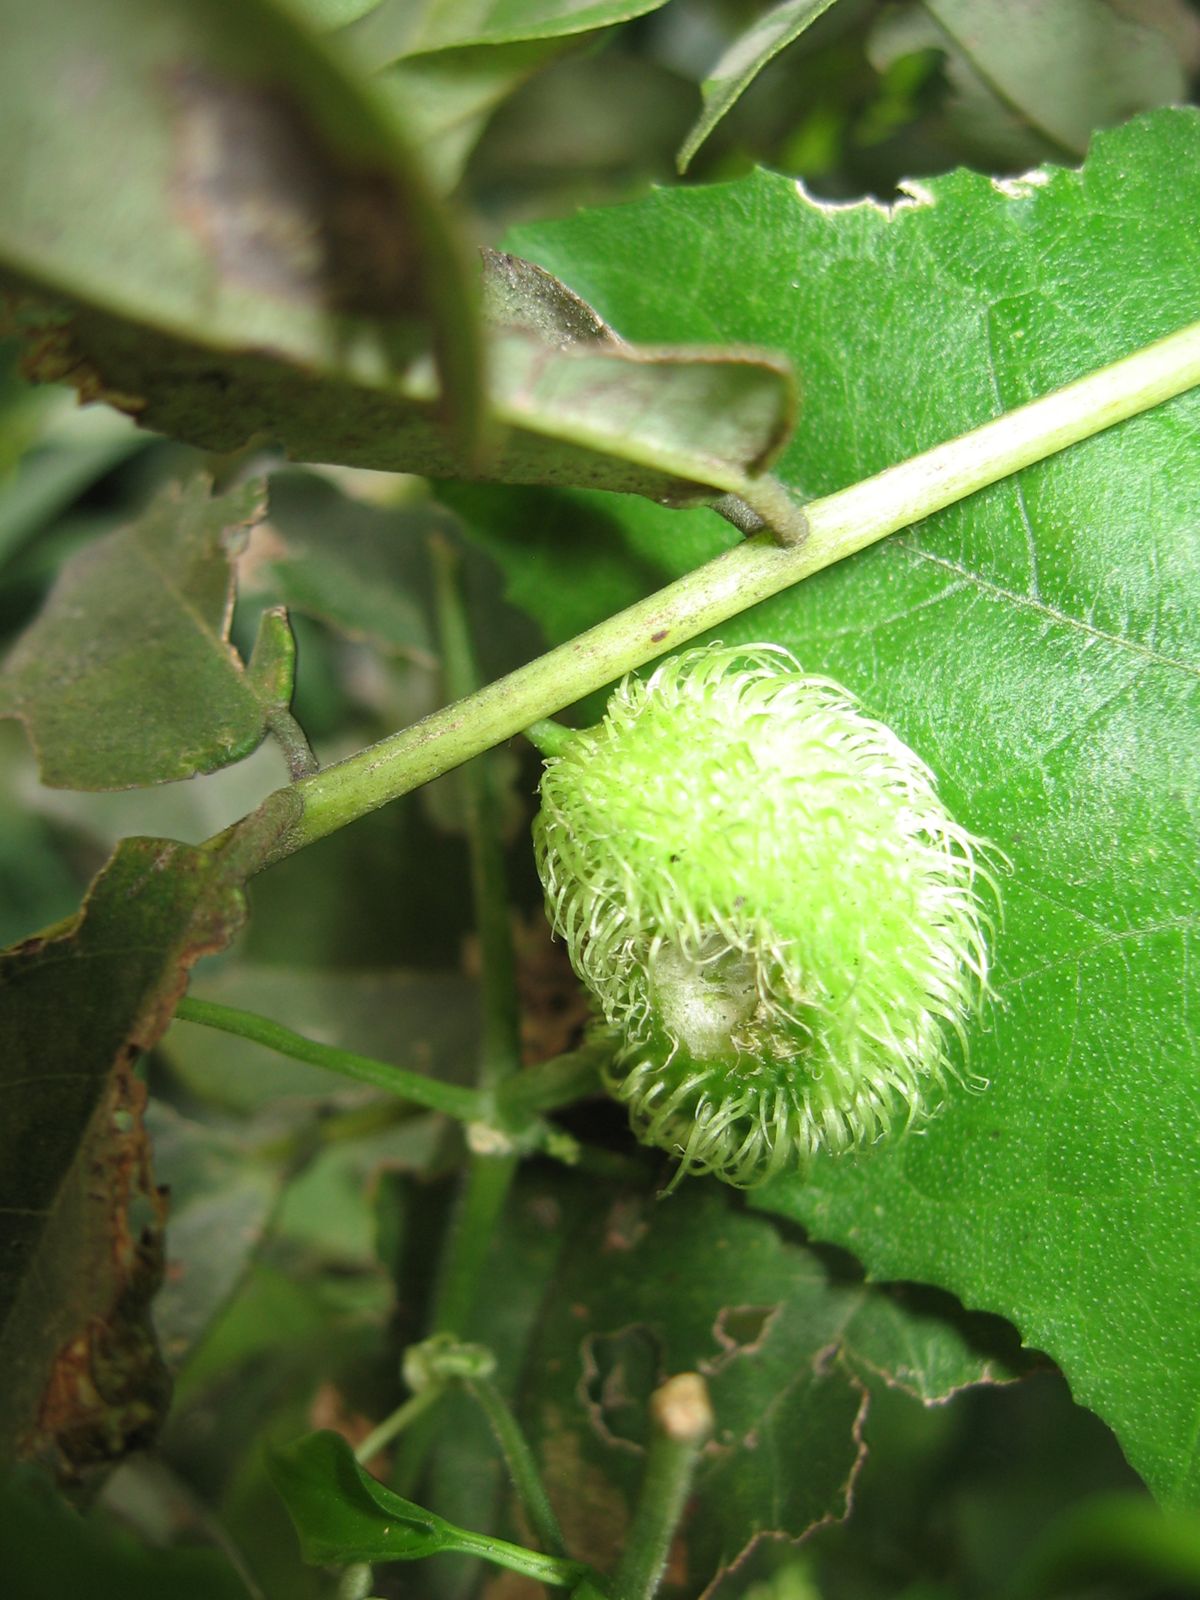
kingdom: Plantae
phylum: Tracheophyta
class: Magnoliopsida
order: Cucurbitales
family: Cucurbitaceae
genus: Cyclanthera
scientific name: Cyclanthera filiformis
